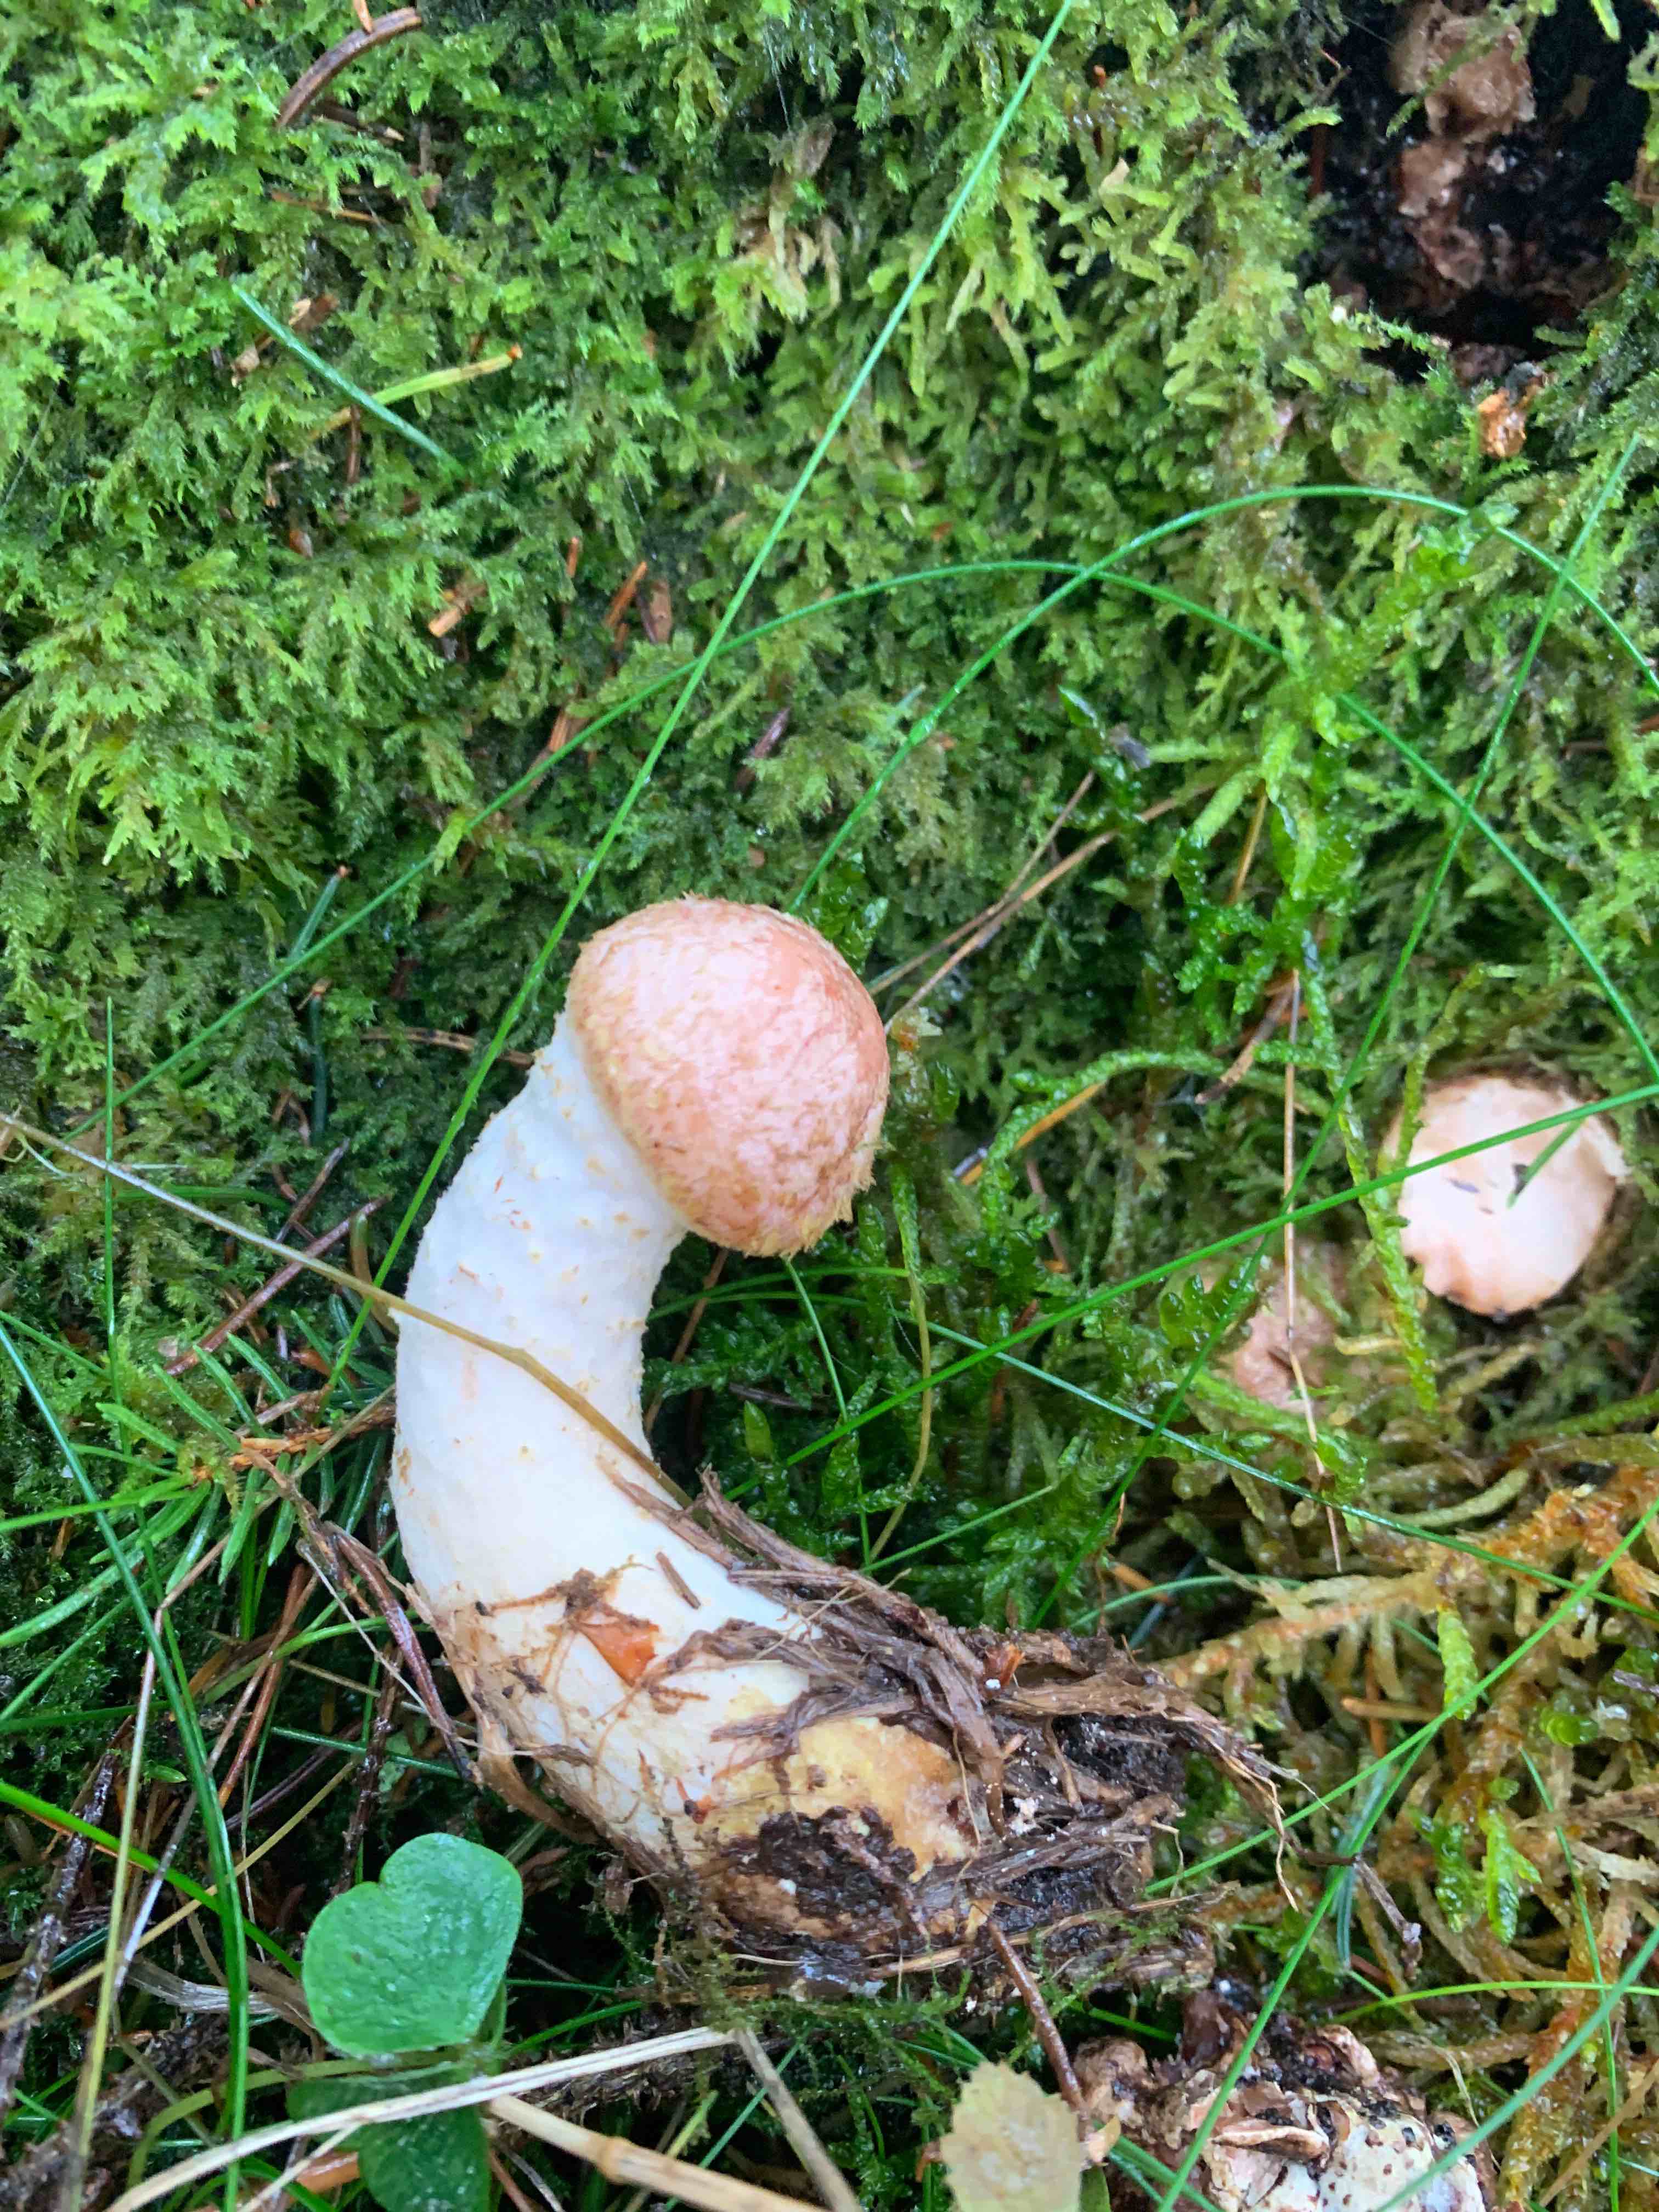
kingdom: Fungi
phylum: Basidiomycota
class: Agaricomycetes
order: Agaricales
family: Physalacriaceae
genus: Armillaria
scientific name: Armillaria ostoyae
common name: mørk honningsvamp
